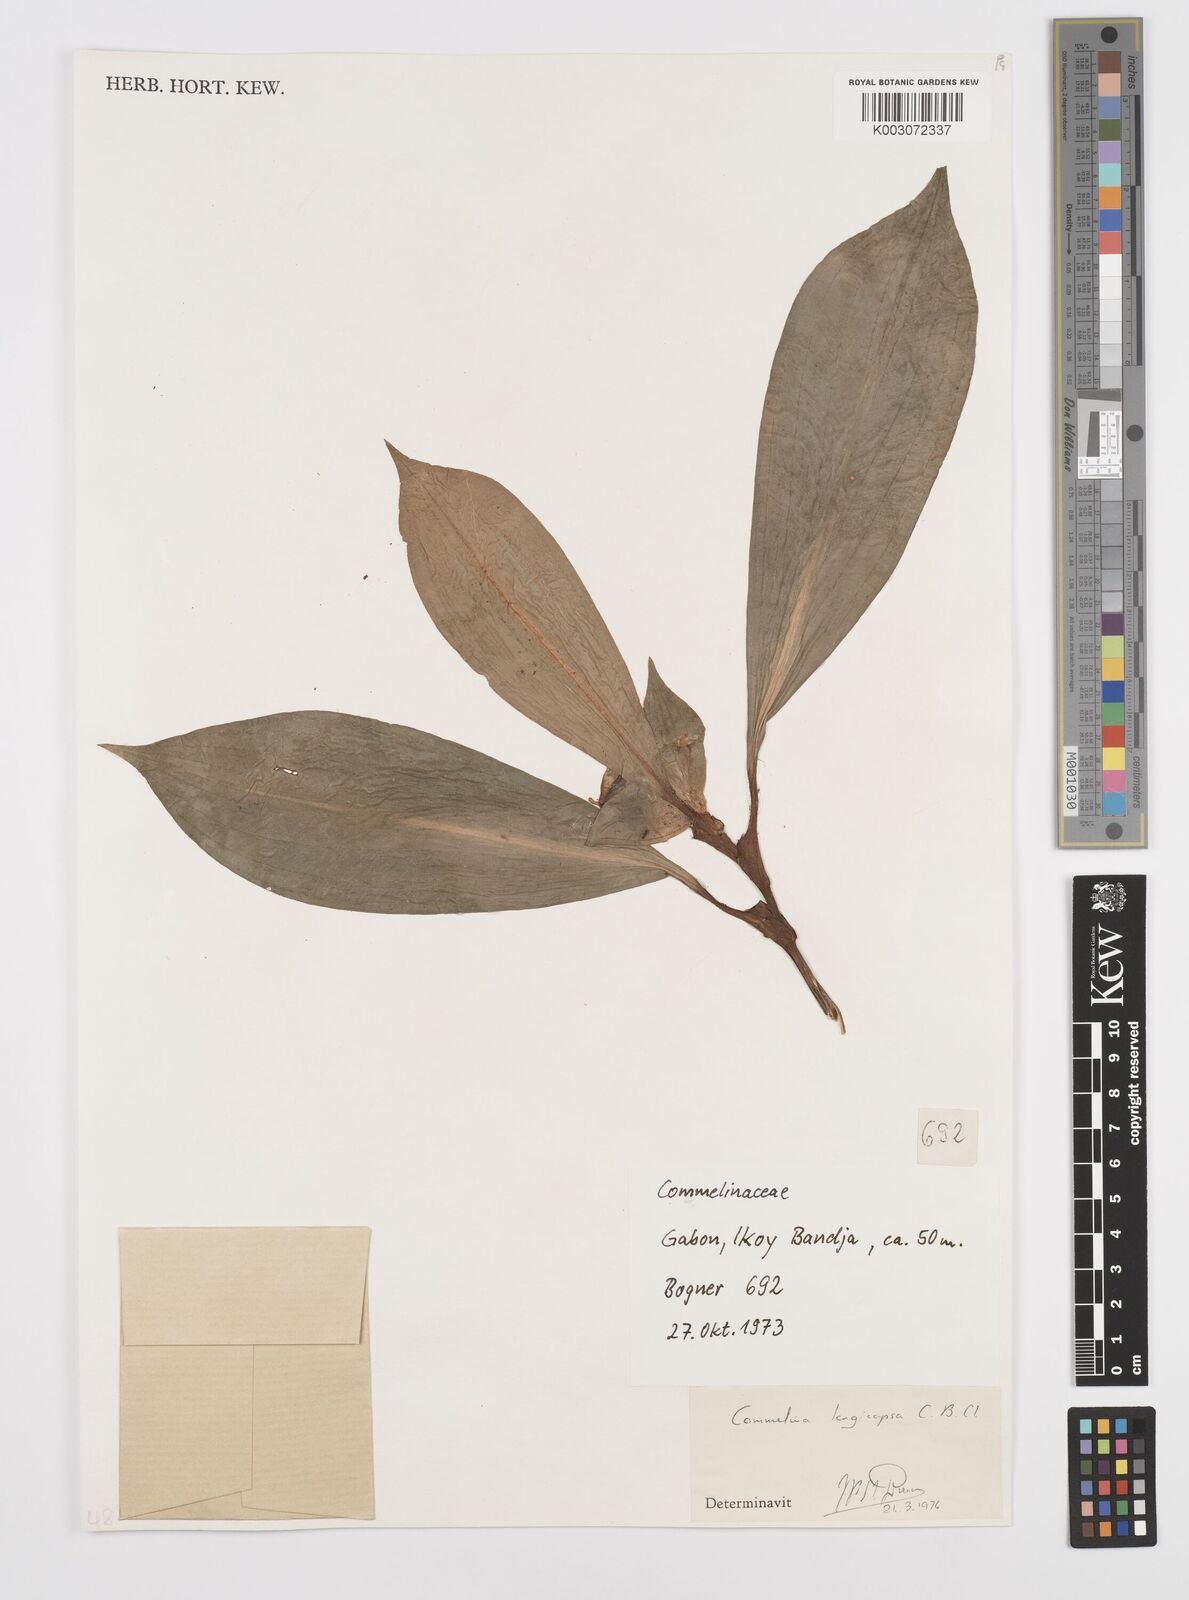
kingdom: Plantae
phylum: Tracheophyta
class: Liliopsida
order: Commelinales
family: Commelinaceae
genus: Commelina
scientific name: Commelina longicapsa
